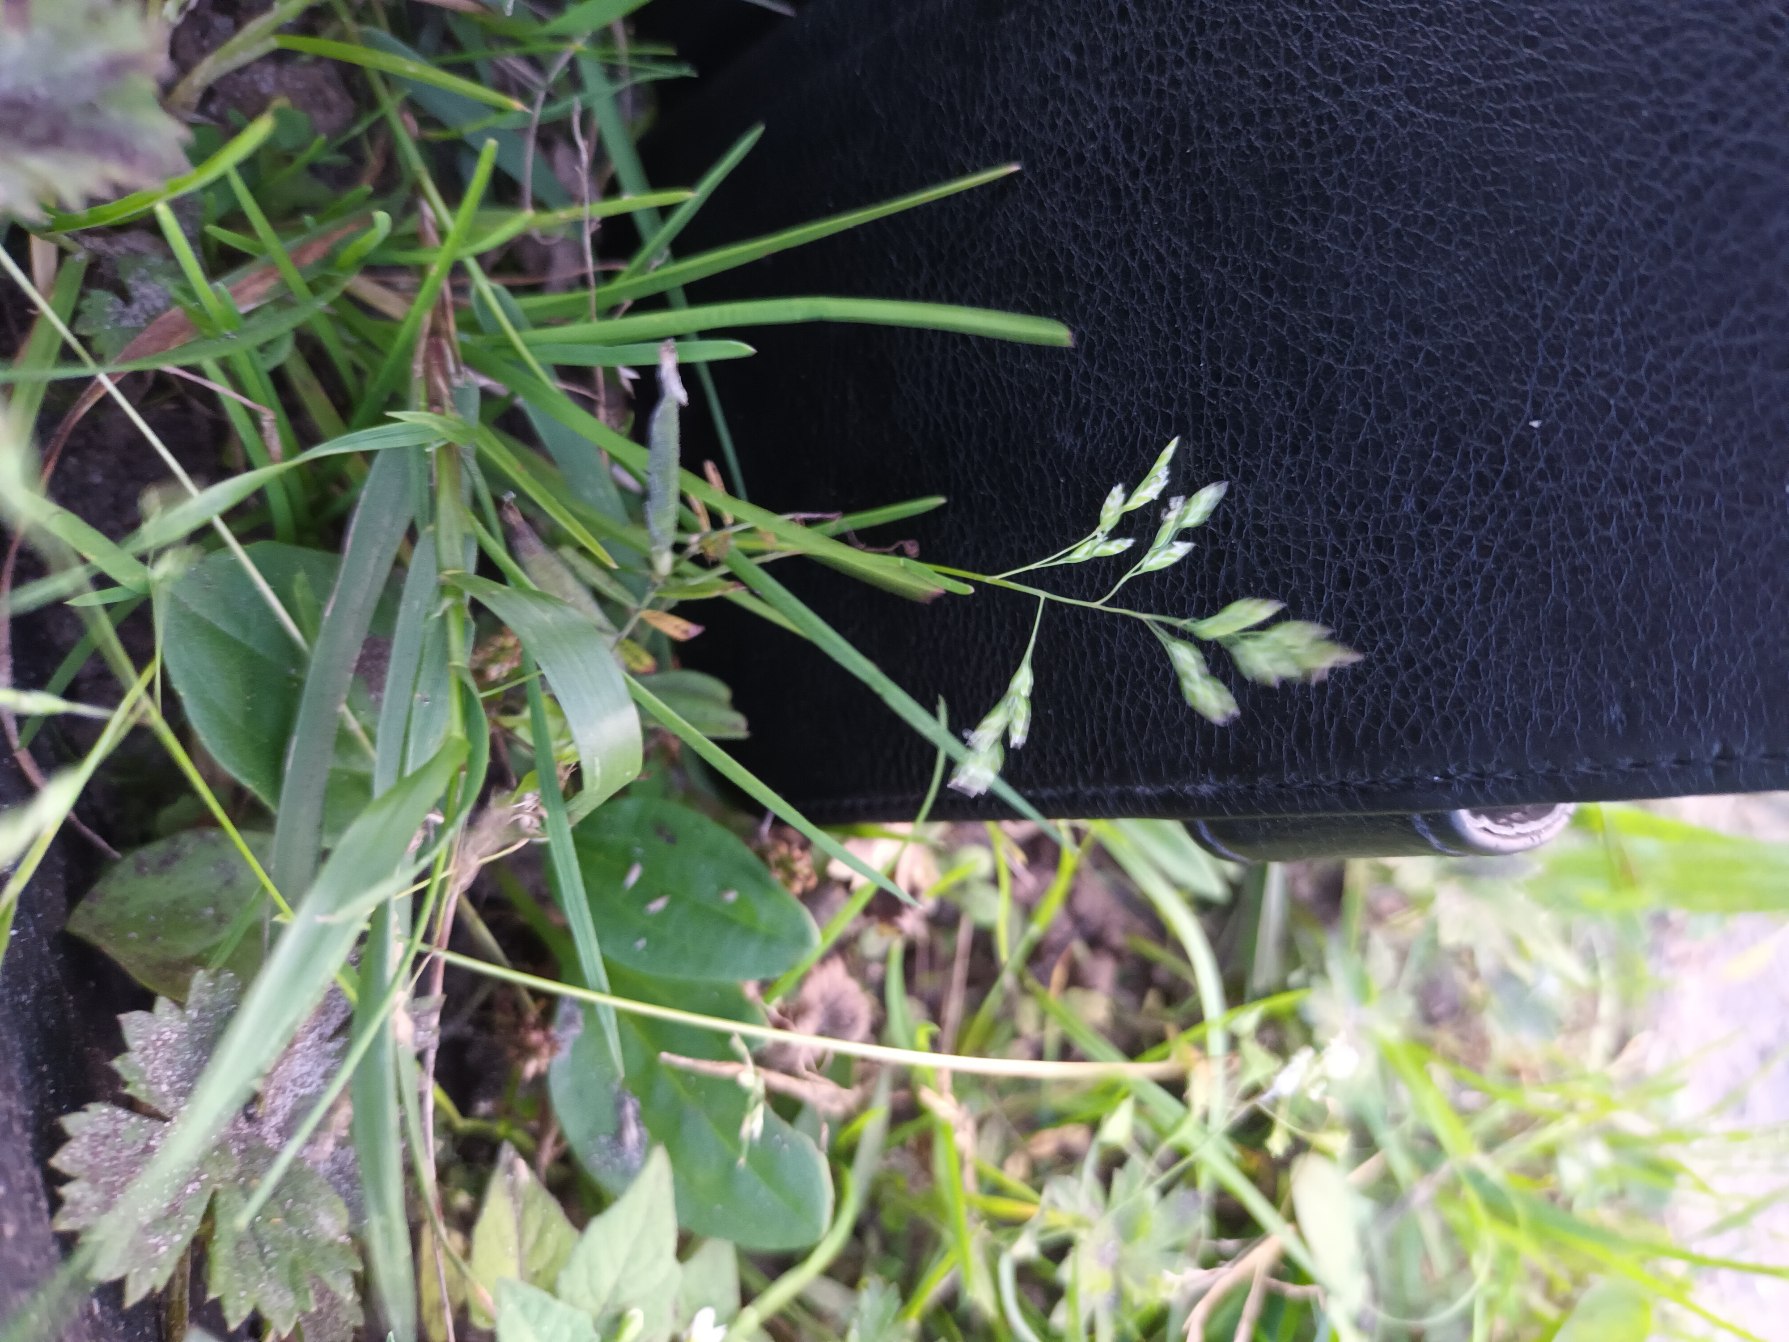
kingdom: Plantae
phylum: Tracheophyta
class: Liliopsida
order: Poales
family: Poaceae
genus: Poa
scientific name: Poa annua
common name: Enårig rapgræs
